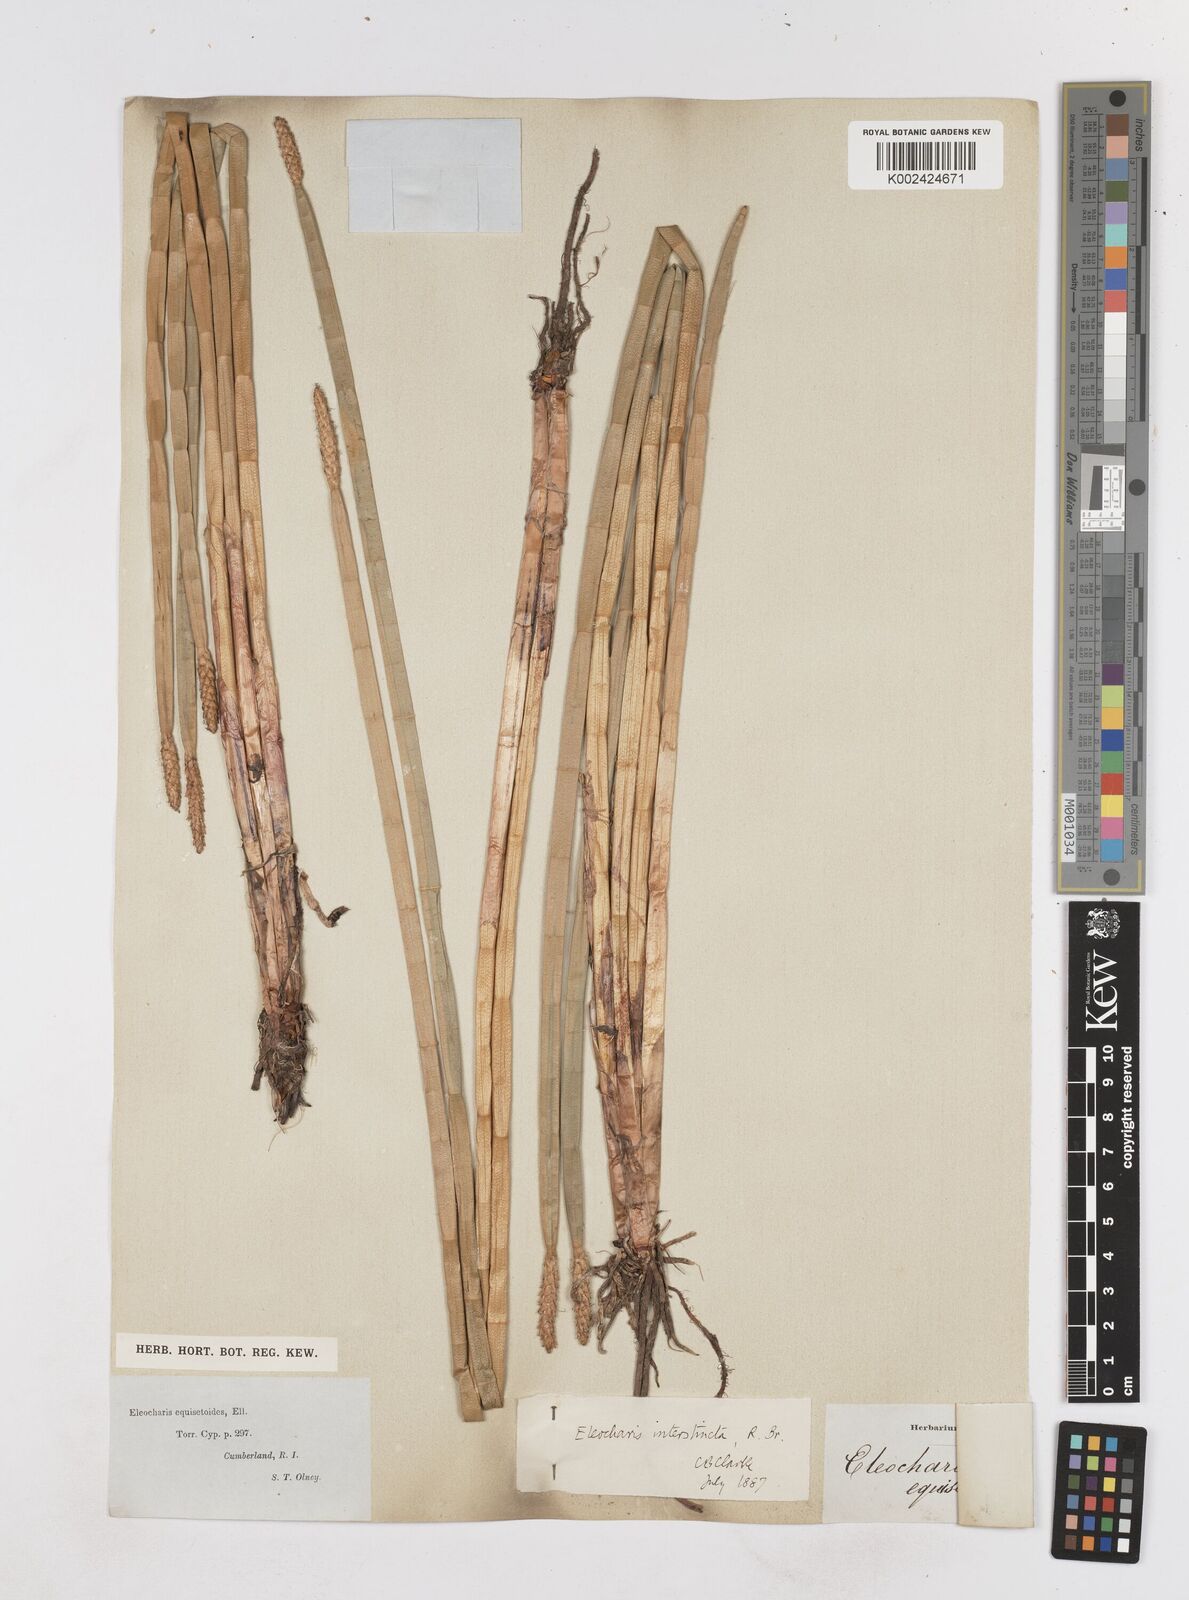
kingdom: Plantae
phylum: Tracheophyta
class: Liliopsida
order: Poales
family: Cyperaceae
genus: Eleocharis
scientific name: Eleocharis interstincta
